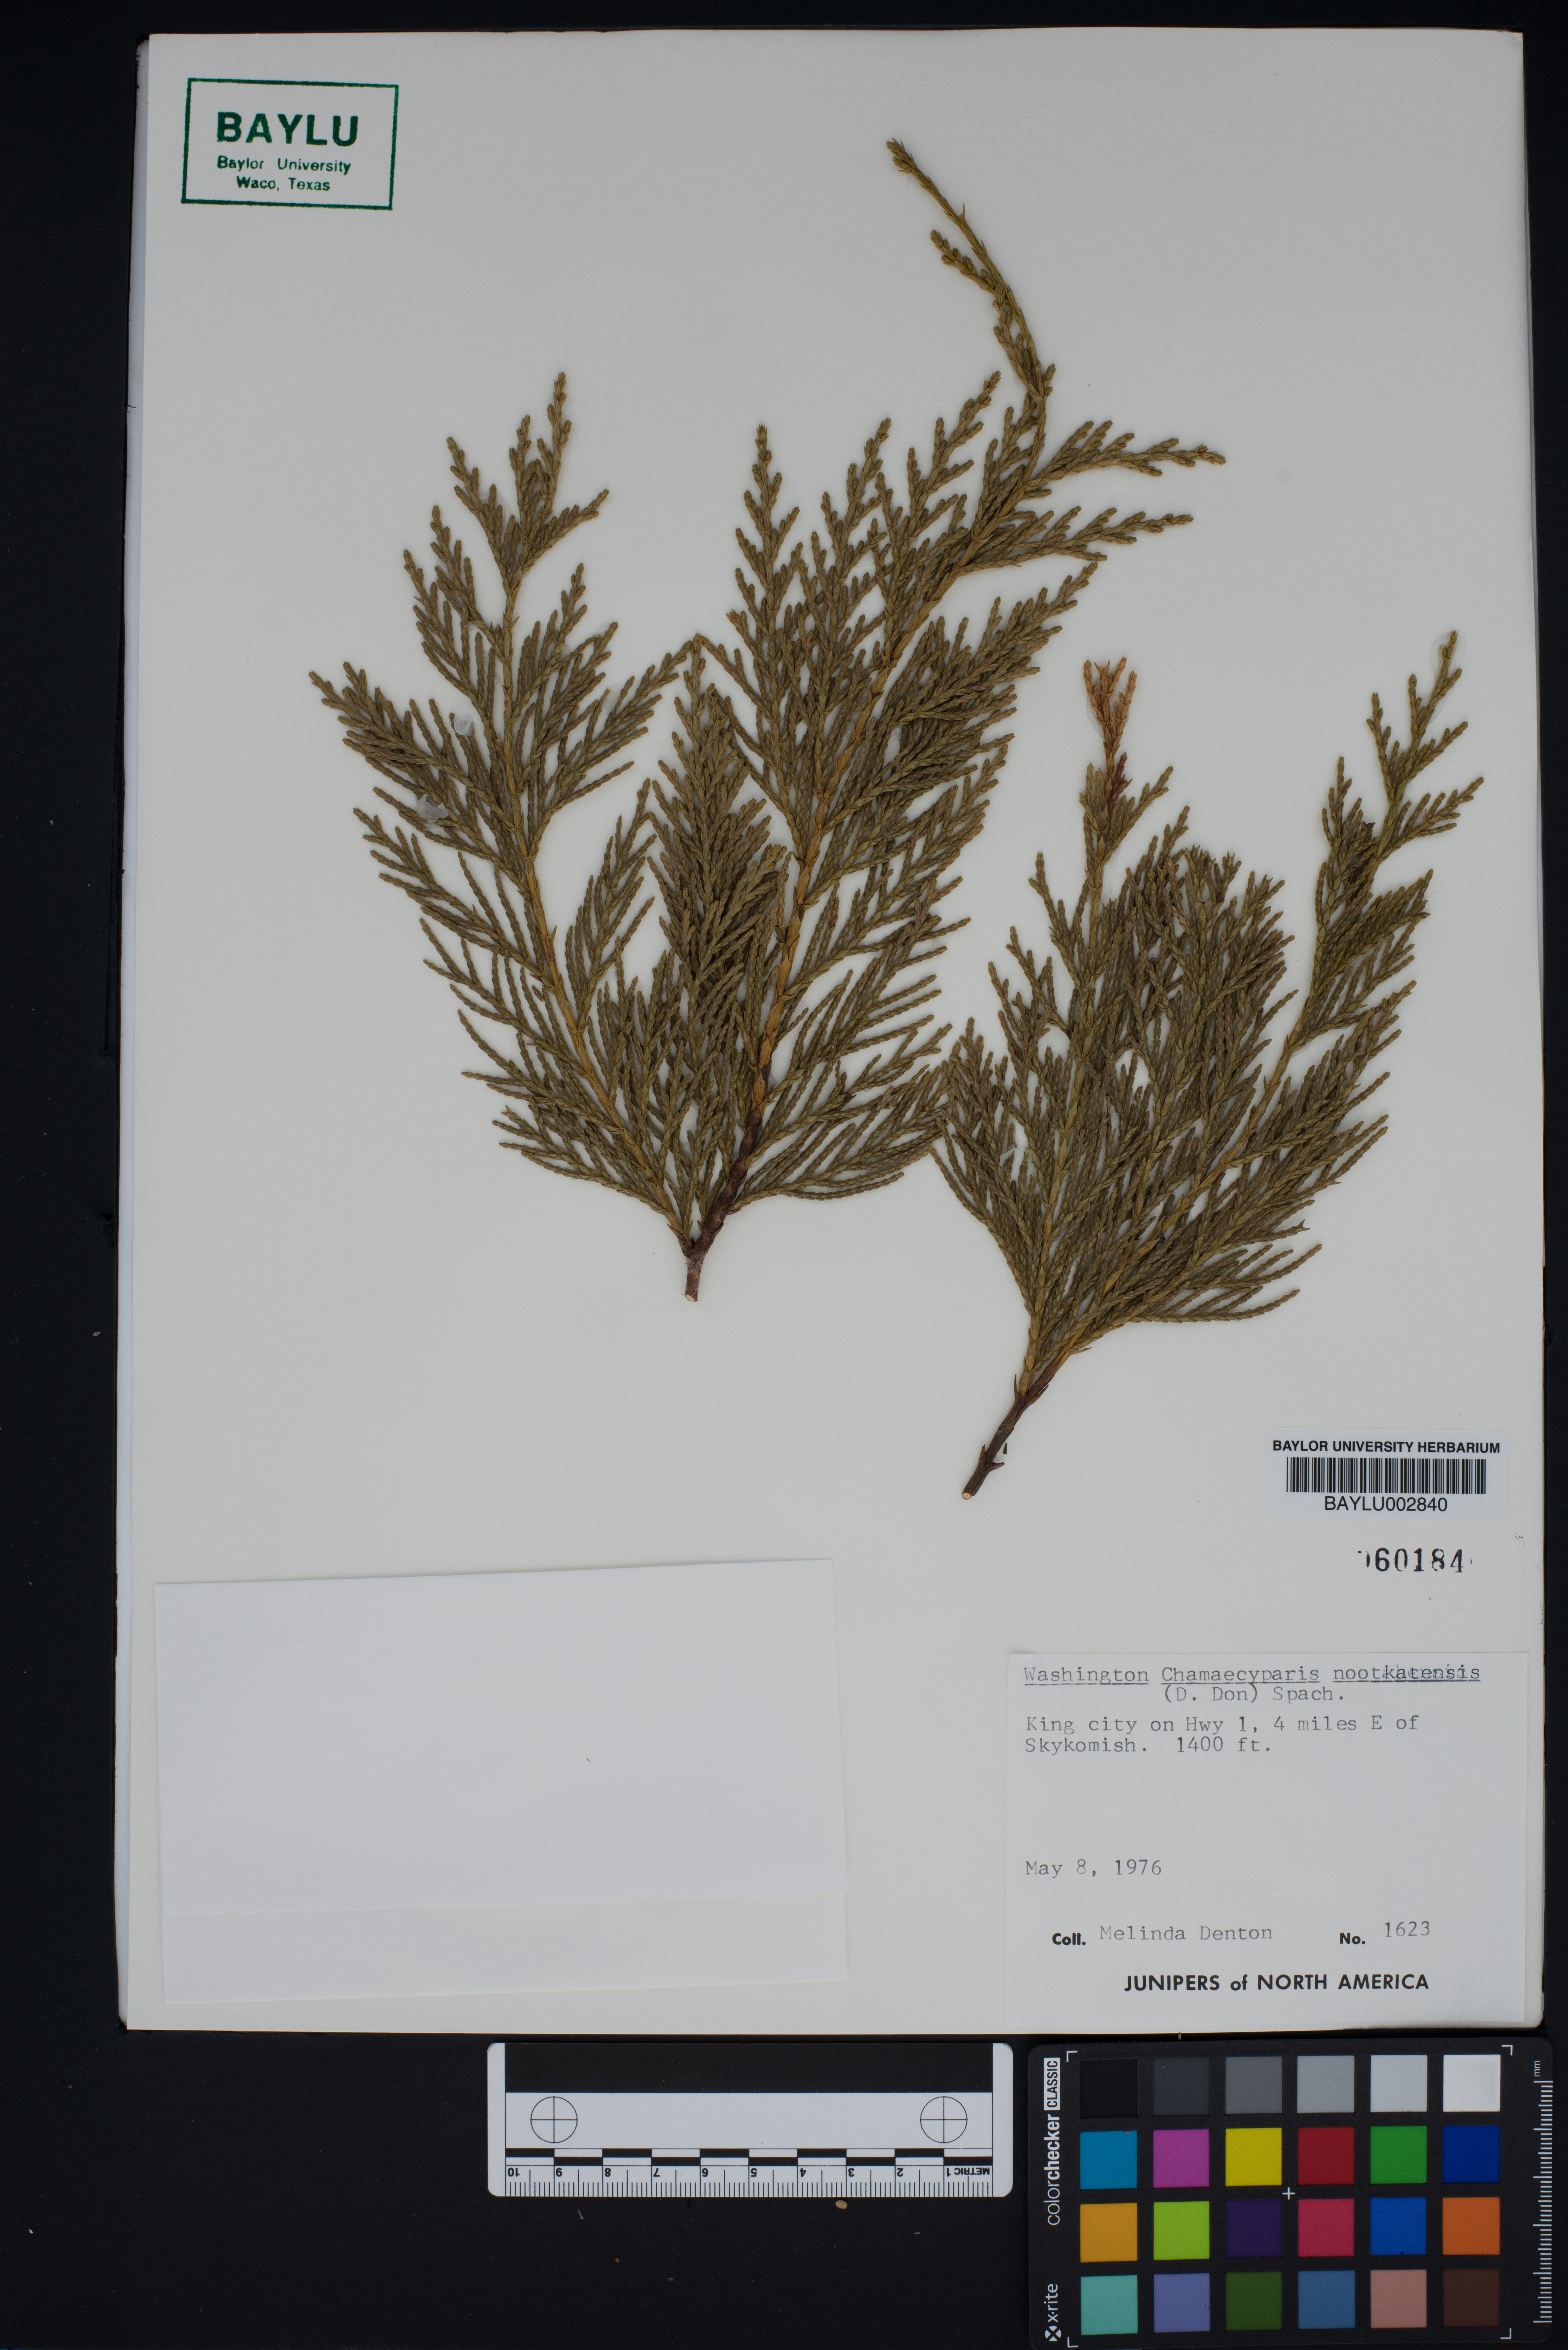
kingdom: Plantae
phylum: Tracheophyta
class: Pinopsida
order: Pinales
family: Cupressaceae
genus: Xanthocyparis
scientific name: Xanthocyparis nootkatensis
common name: Nootka cypress
